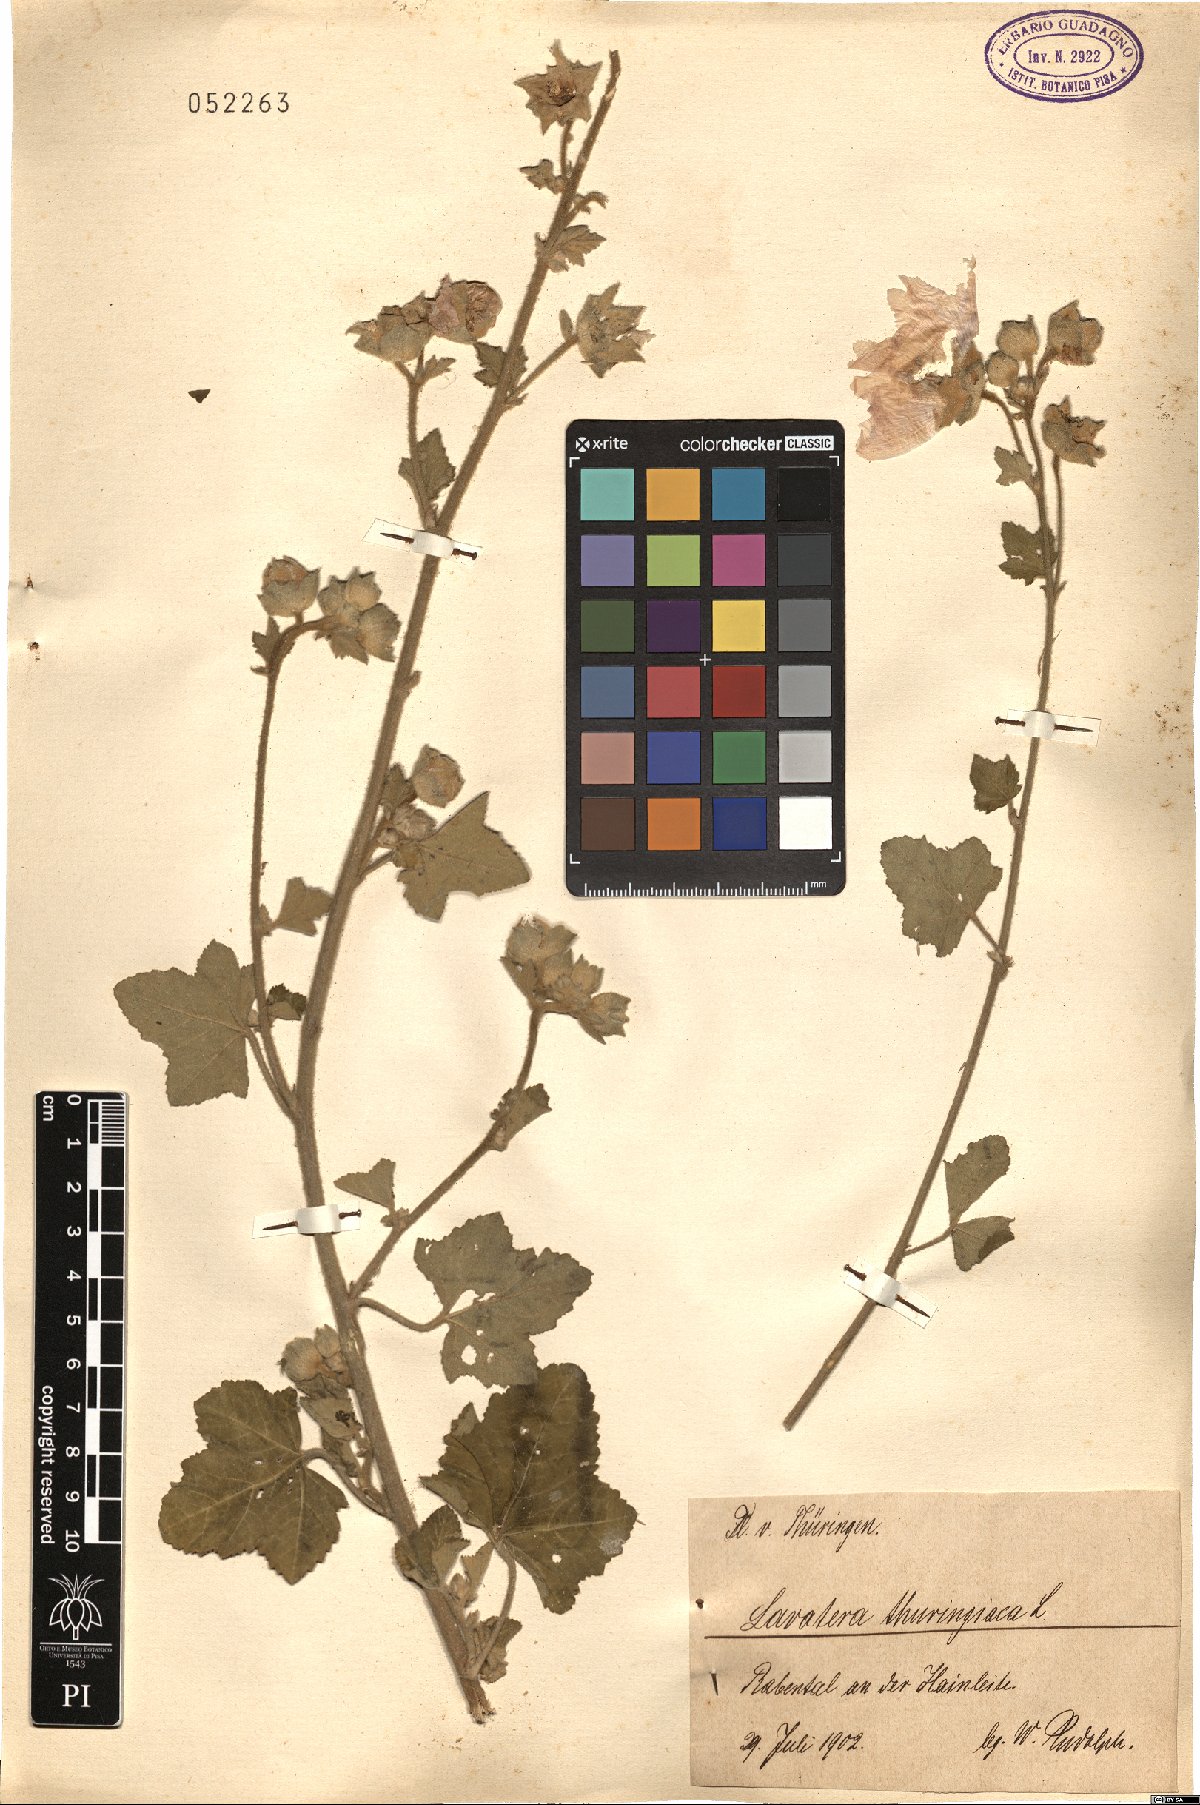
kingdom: Plantae
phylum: Tracheophyta
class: Magnoliopsida
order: Malvales
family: Malvaceae
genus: Malva
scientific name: Malva thuringiaca
